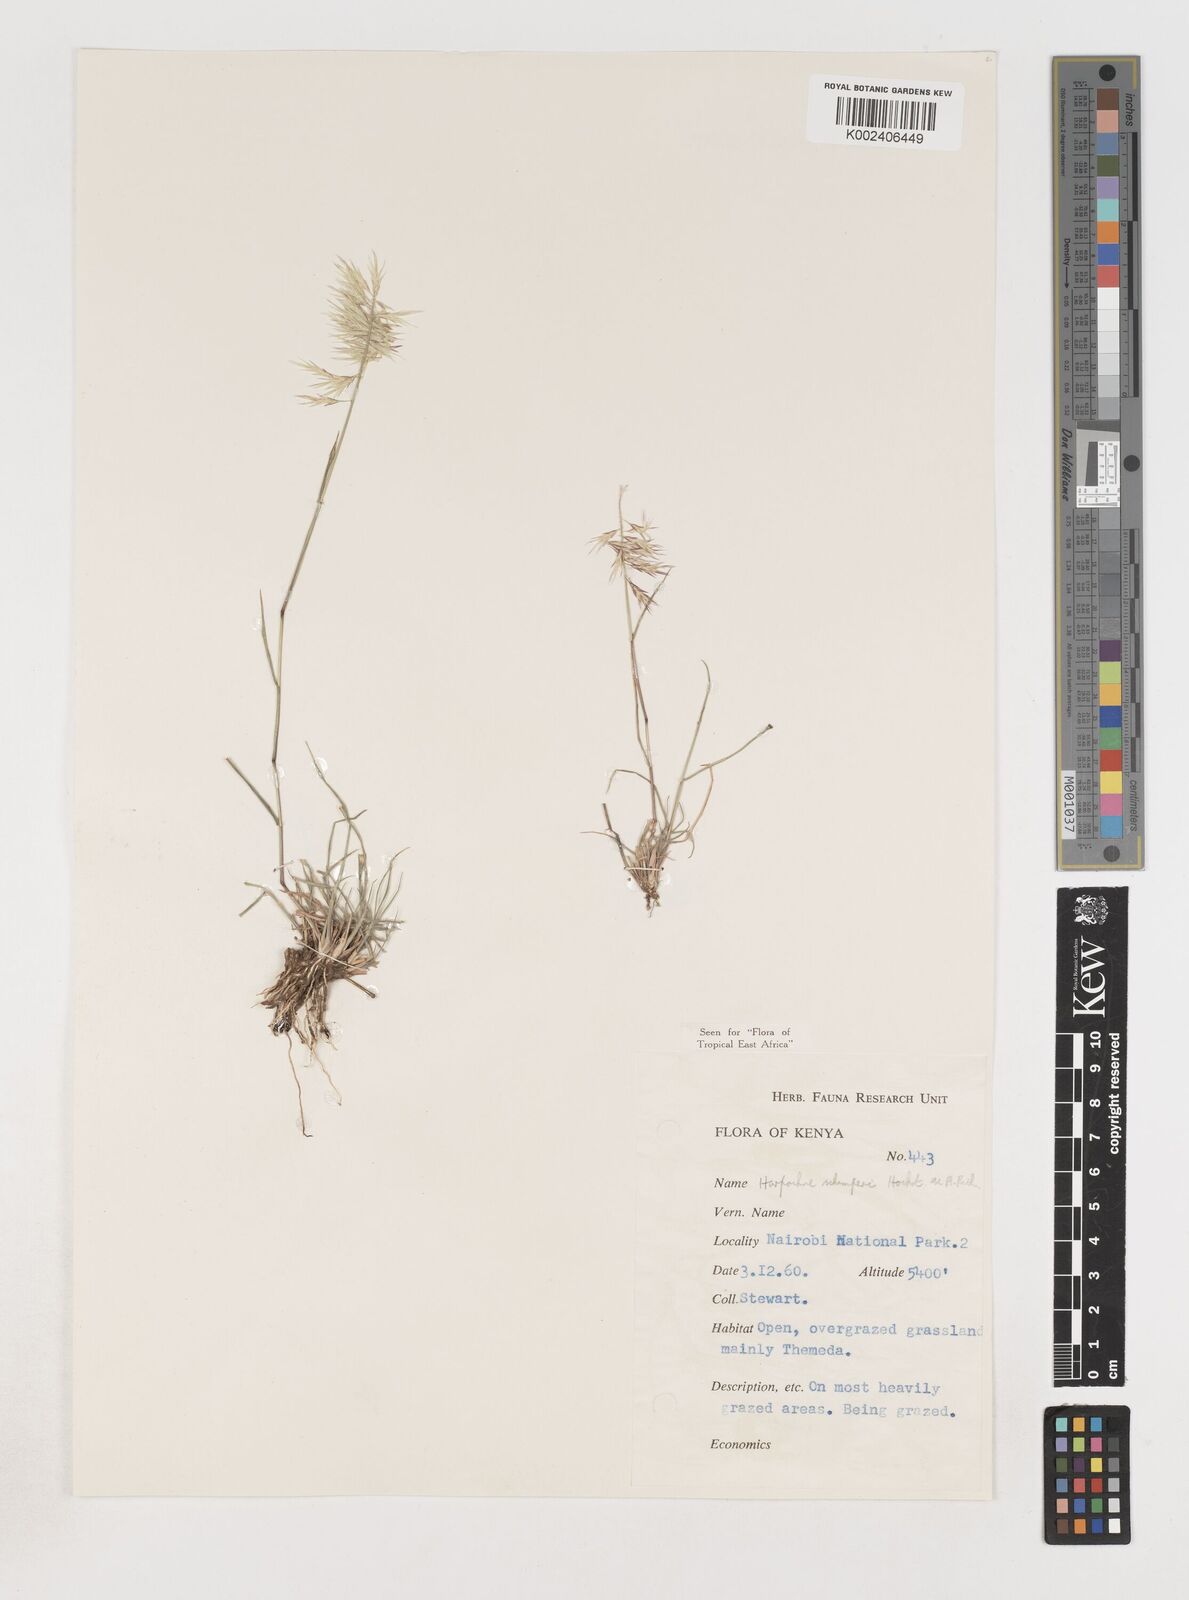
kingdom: Plantae
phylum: Tracheophyta
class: Liliopsida
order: Poales
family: Poaceae
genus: Harpachne
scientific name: Harpachne schimperi
